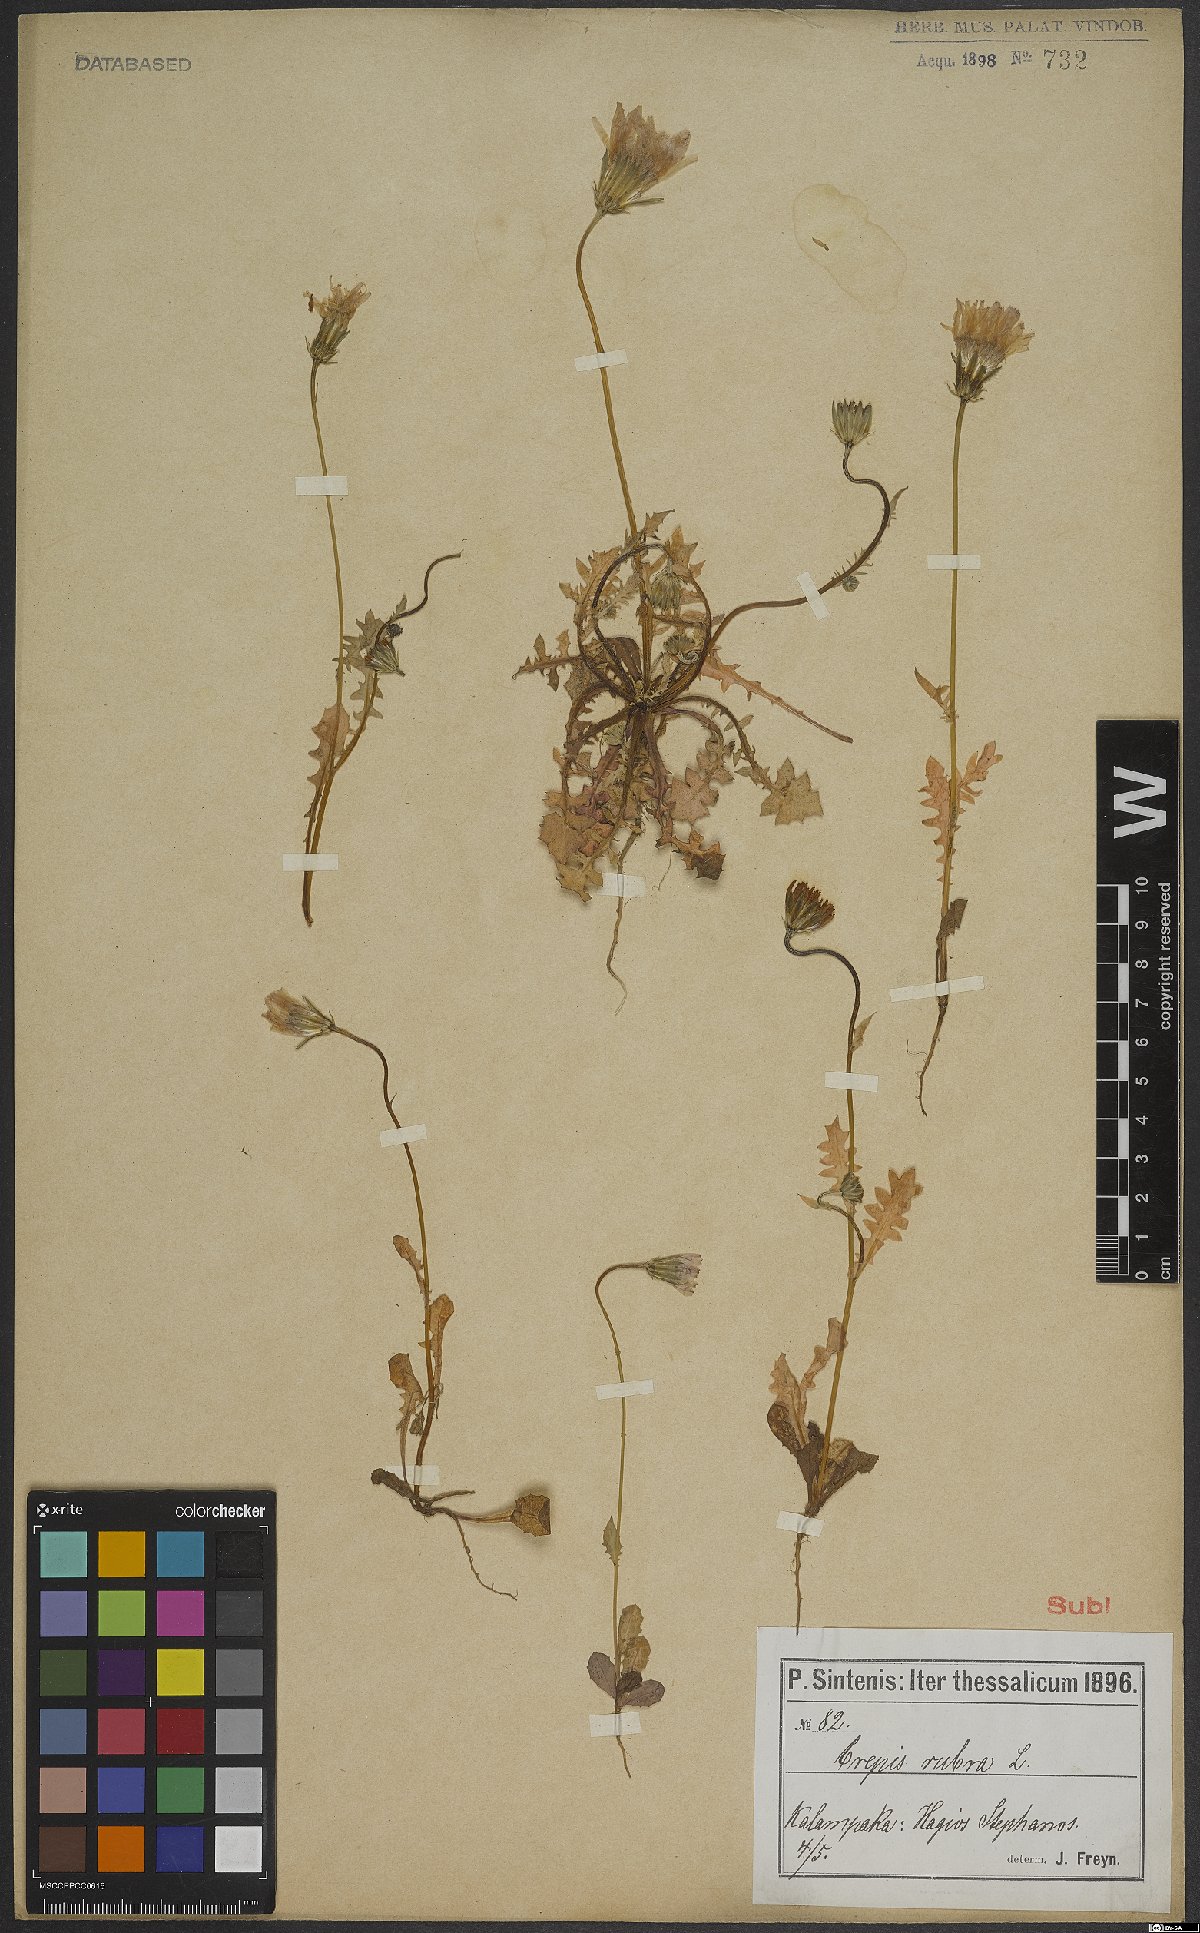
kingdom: Plantae
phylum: Tracheophyta
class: Magnoliopsida
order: Asterales
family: Asteraceae
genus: Crepis
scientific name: Crepis rubra
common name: Pink hawk's-beard
